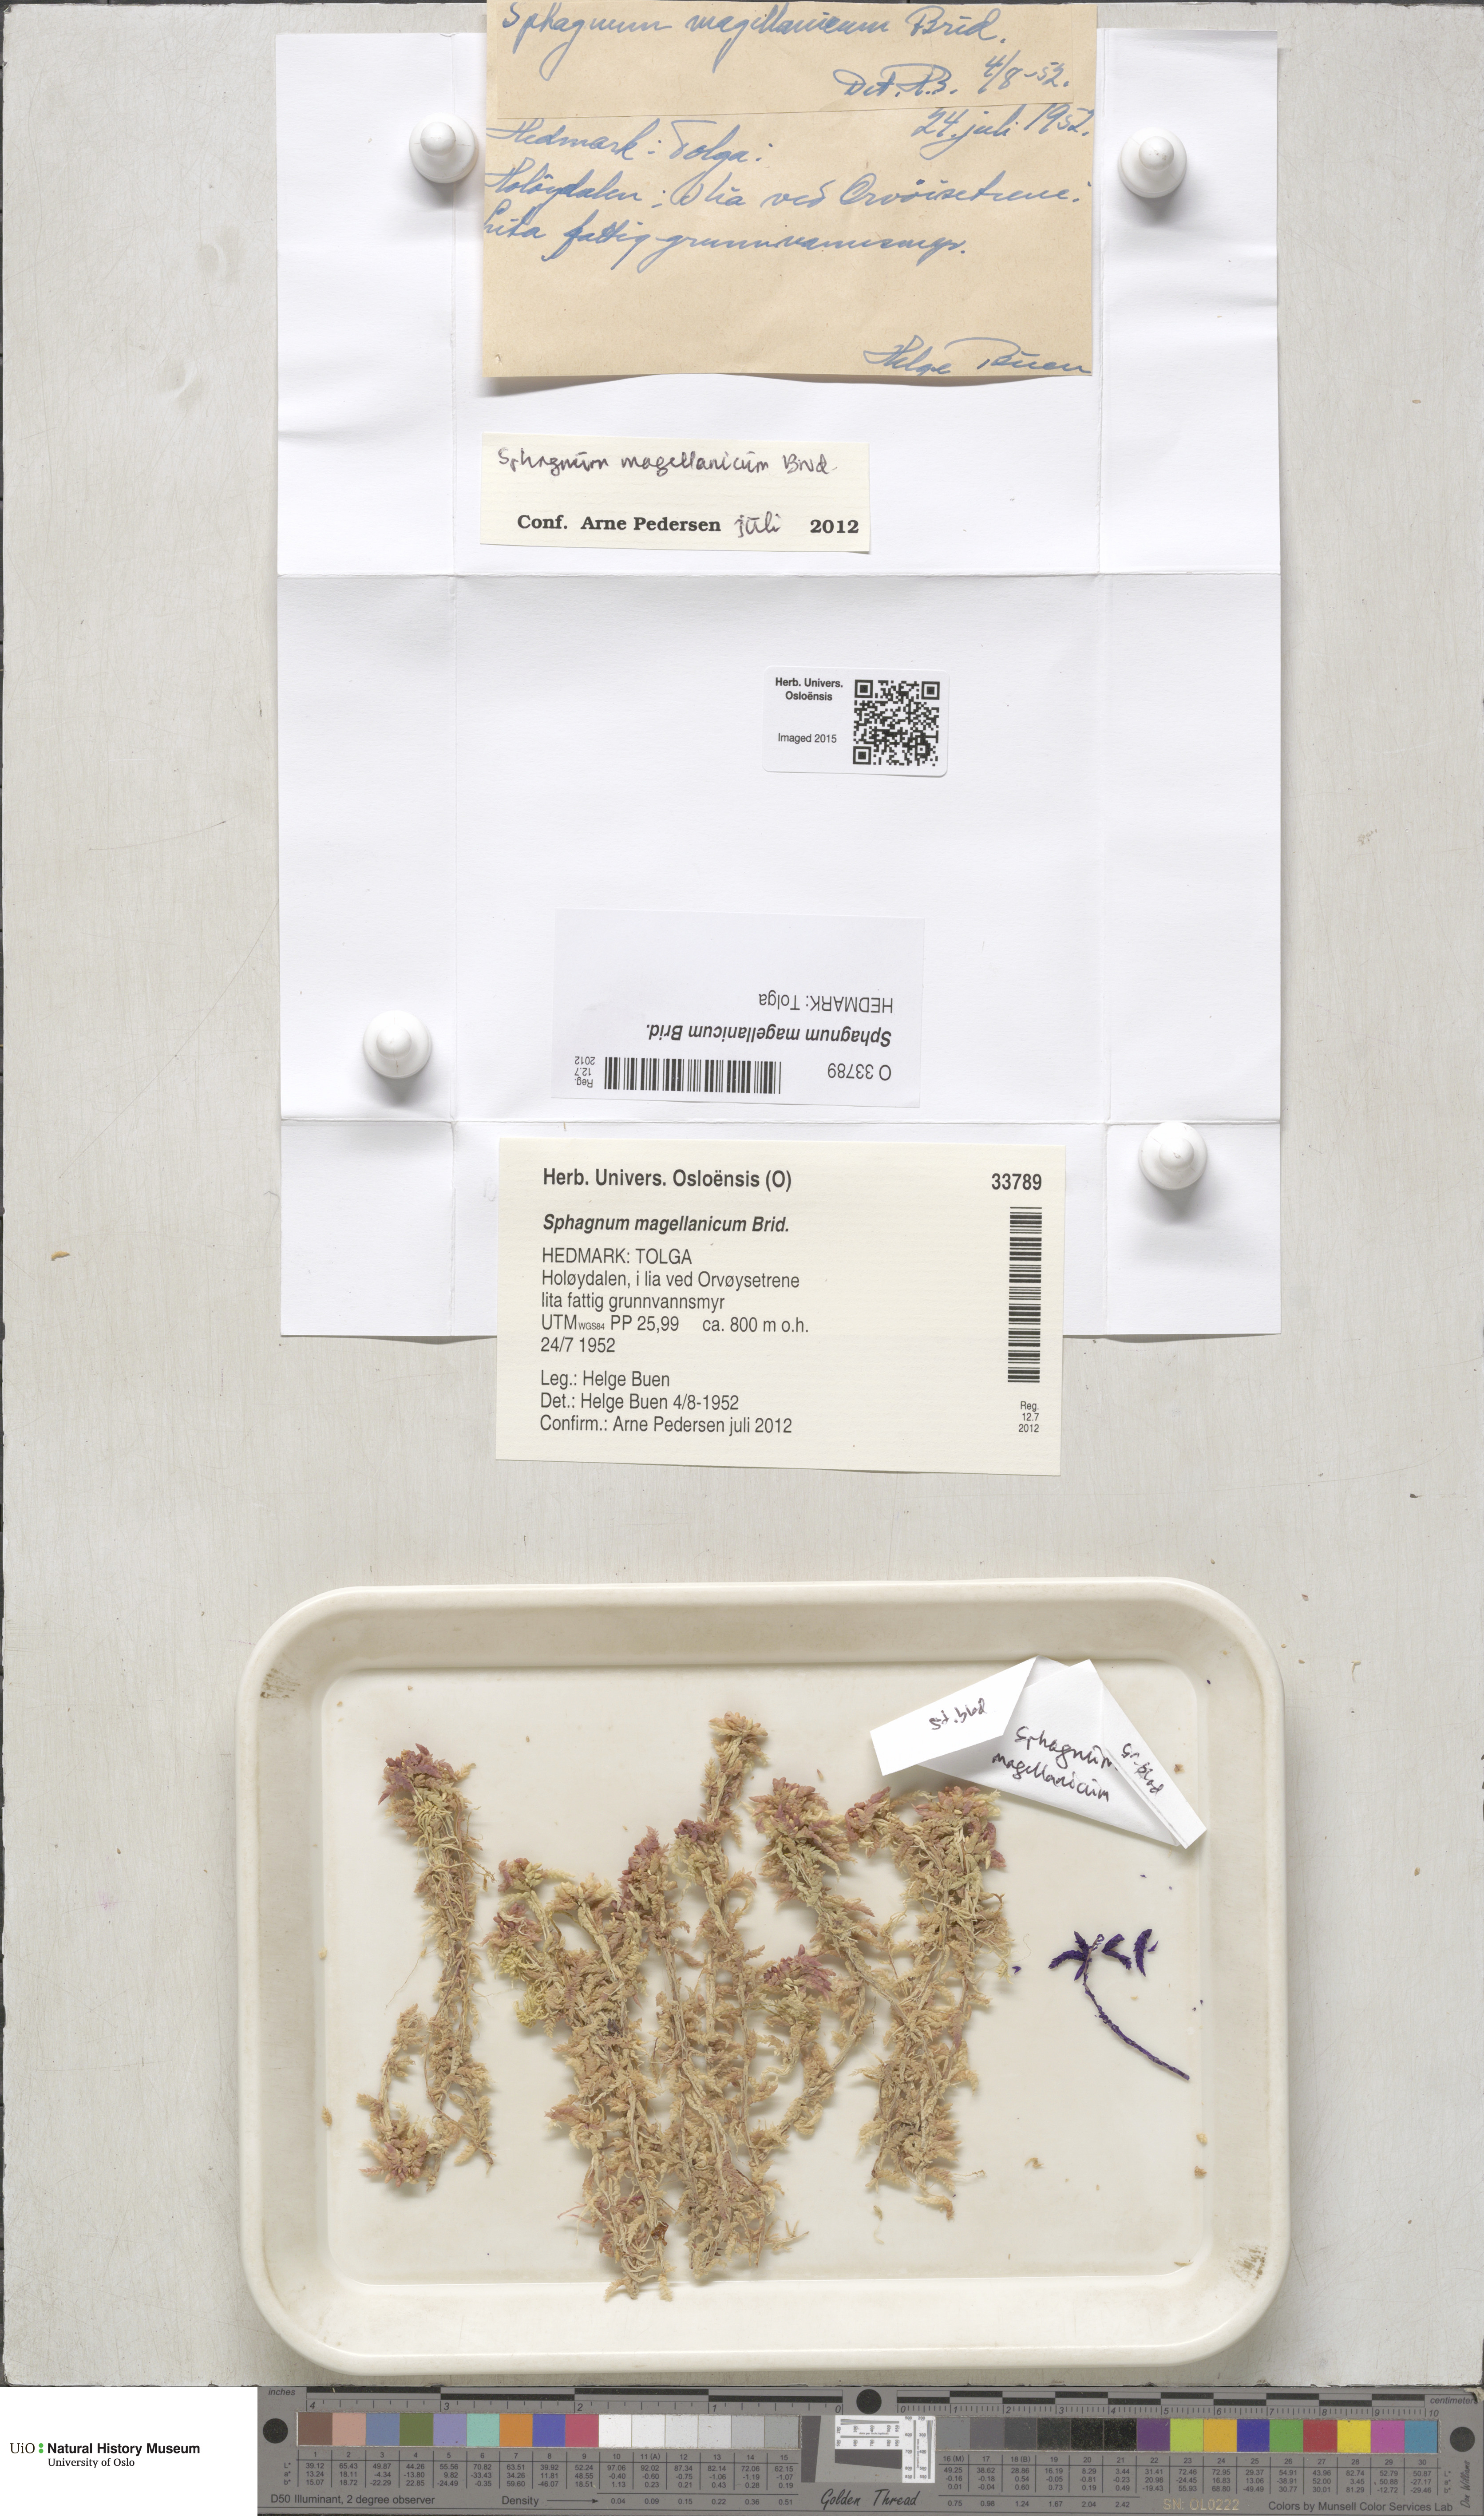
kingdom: Plantae
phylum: Bryophyta
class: Sphagnopsida
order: Sphagnales
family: Sphagnaceae
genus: Sphagnum
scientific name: Sphagnum magellanicum
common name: Magellan's peat moss
